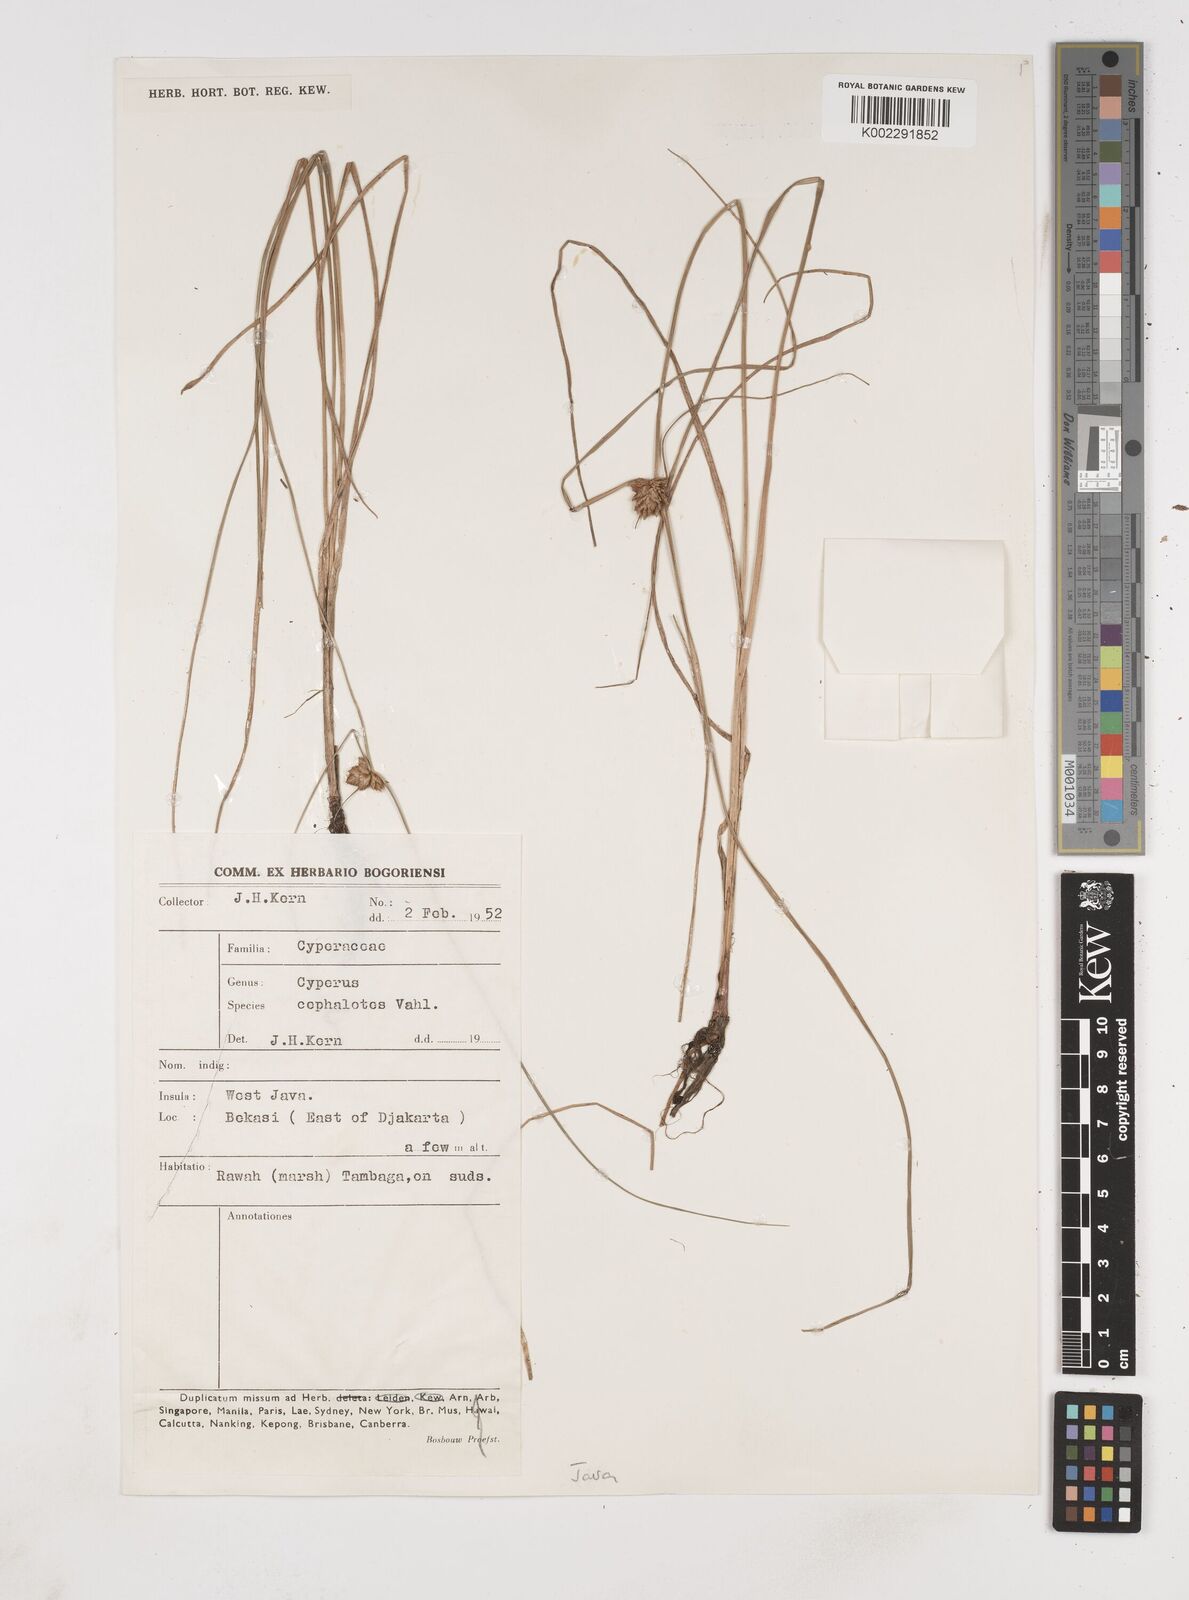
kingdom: Plantae
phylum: Tracheophyta
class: Liliopsida
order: Poales
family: Cyperaceae
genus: Cyperus
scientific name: Cyperus
